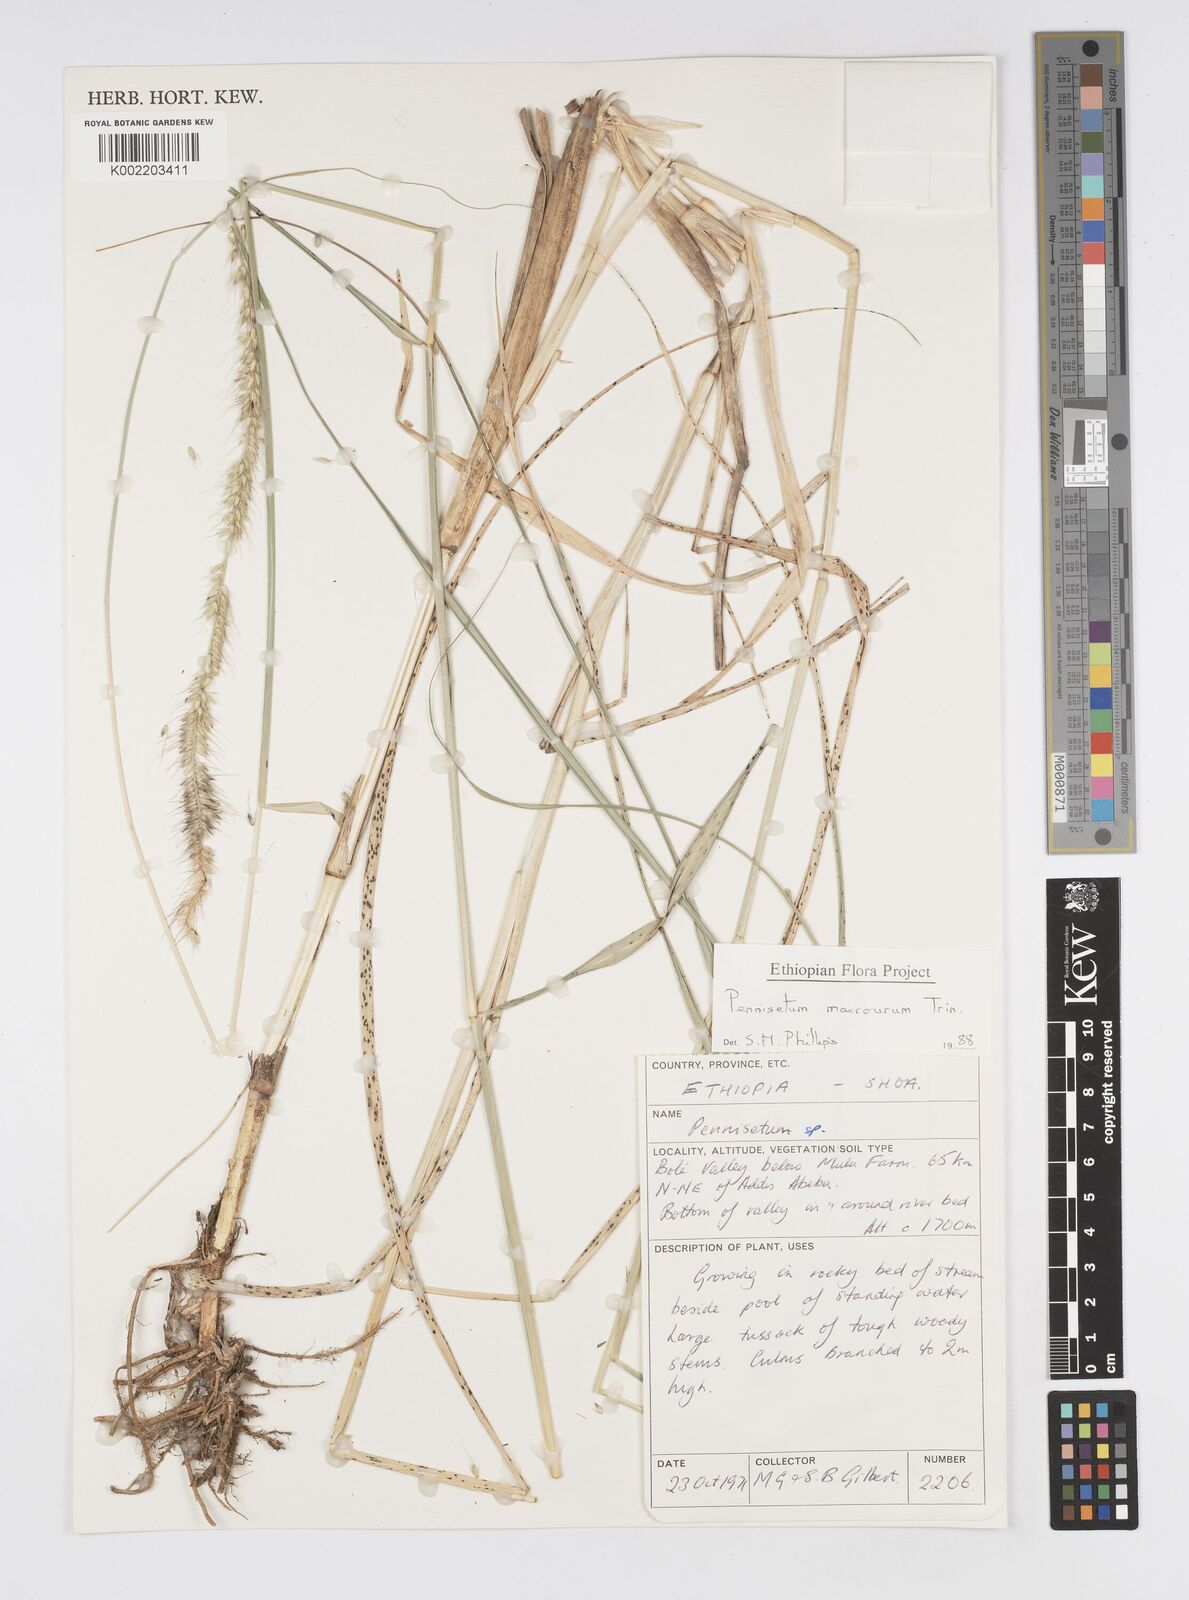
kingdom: Plantae
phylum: Tracheophyta
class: Liliopsida
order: Poales
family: Poaceae
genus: Cenchrus
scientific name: Cenchrus caudatus
